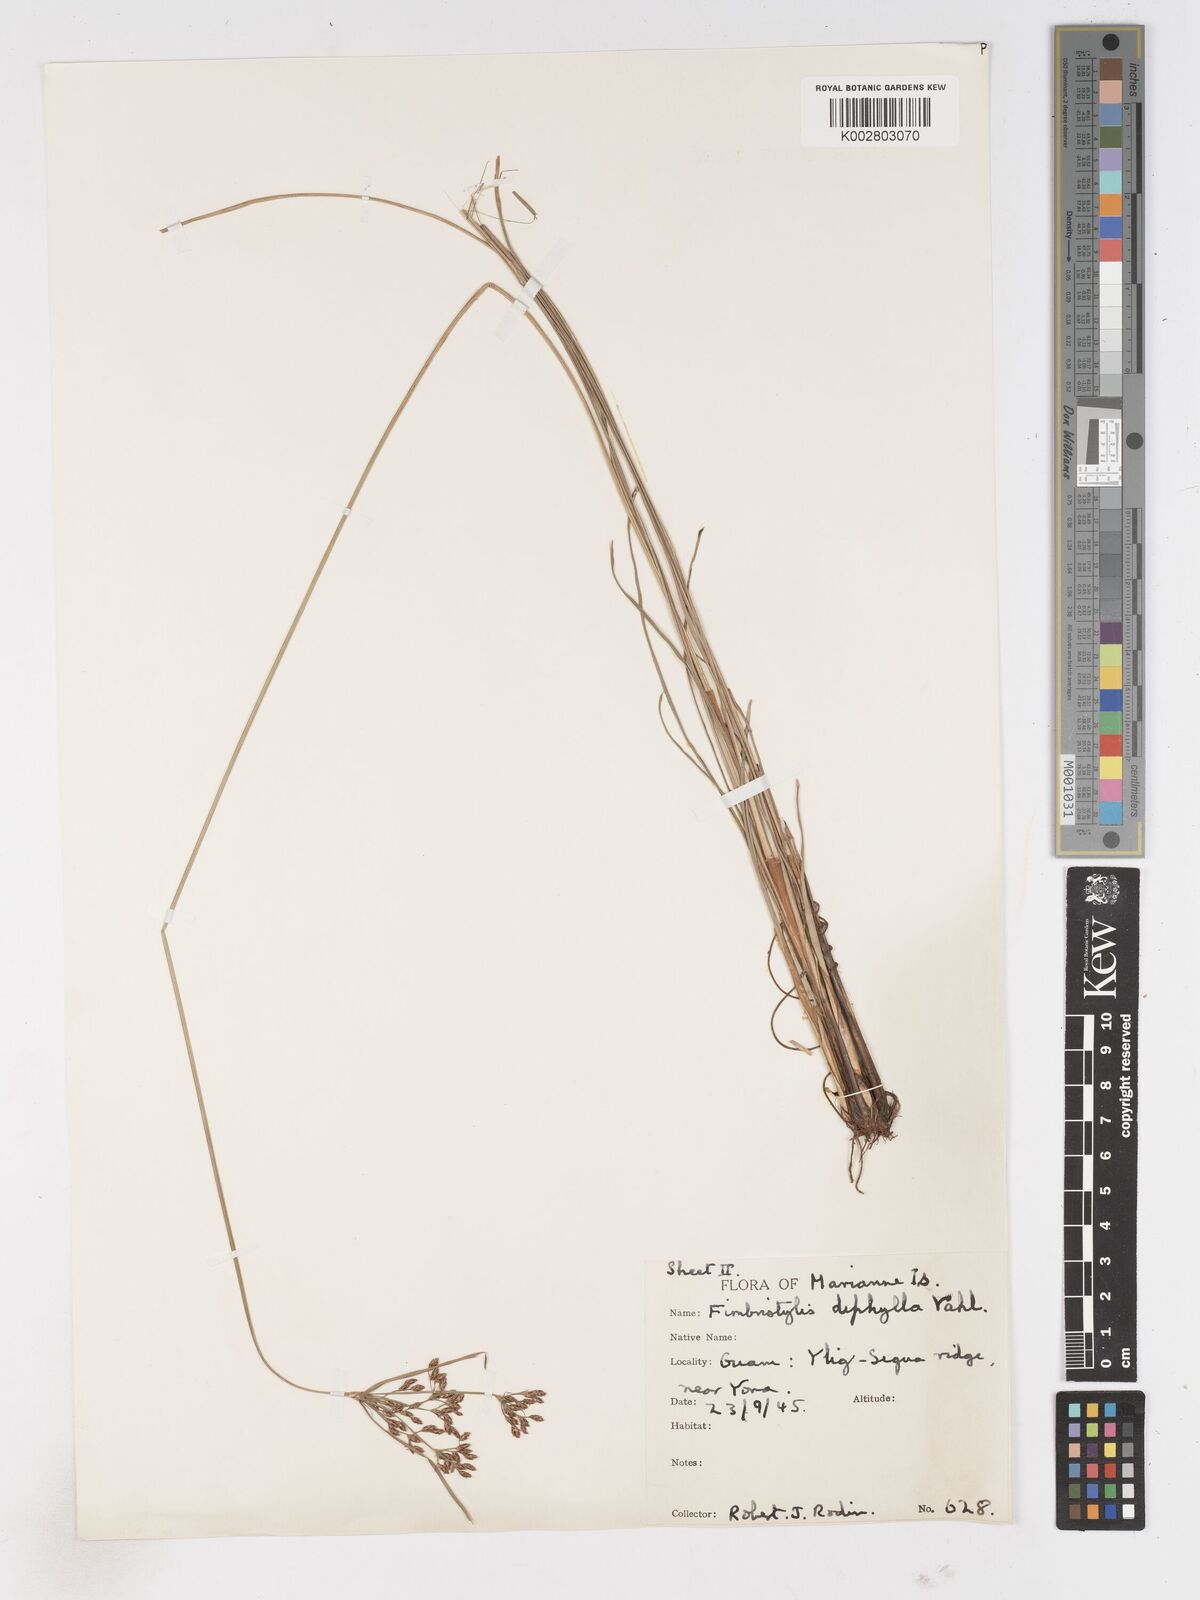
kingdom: Plantae
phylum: Tracheophyta
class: Liliopsida
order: Poales
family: Cyperaceae
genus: Fimbristylis
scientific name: Fimbristylis dichotoma
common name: Forked fimbry
